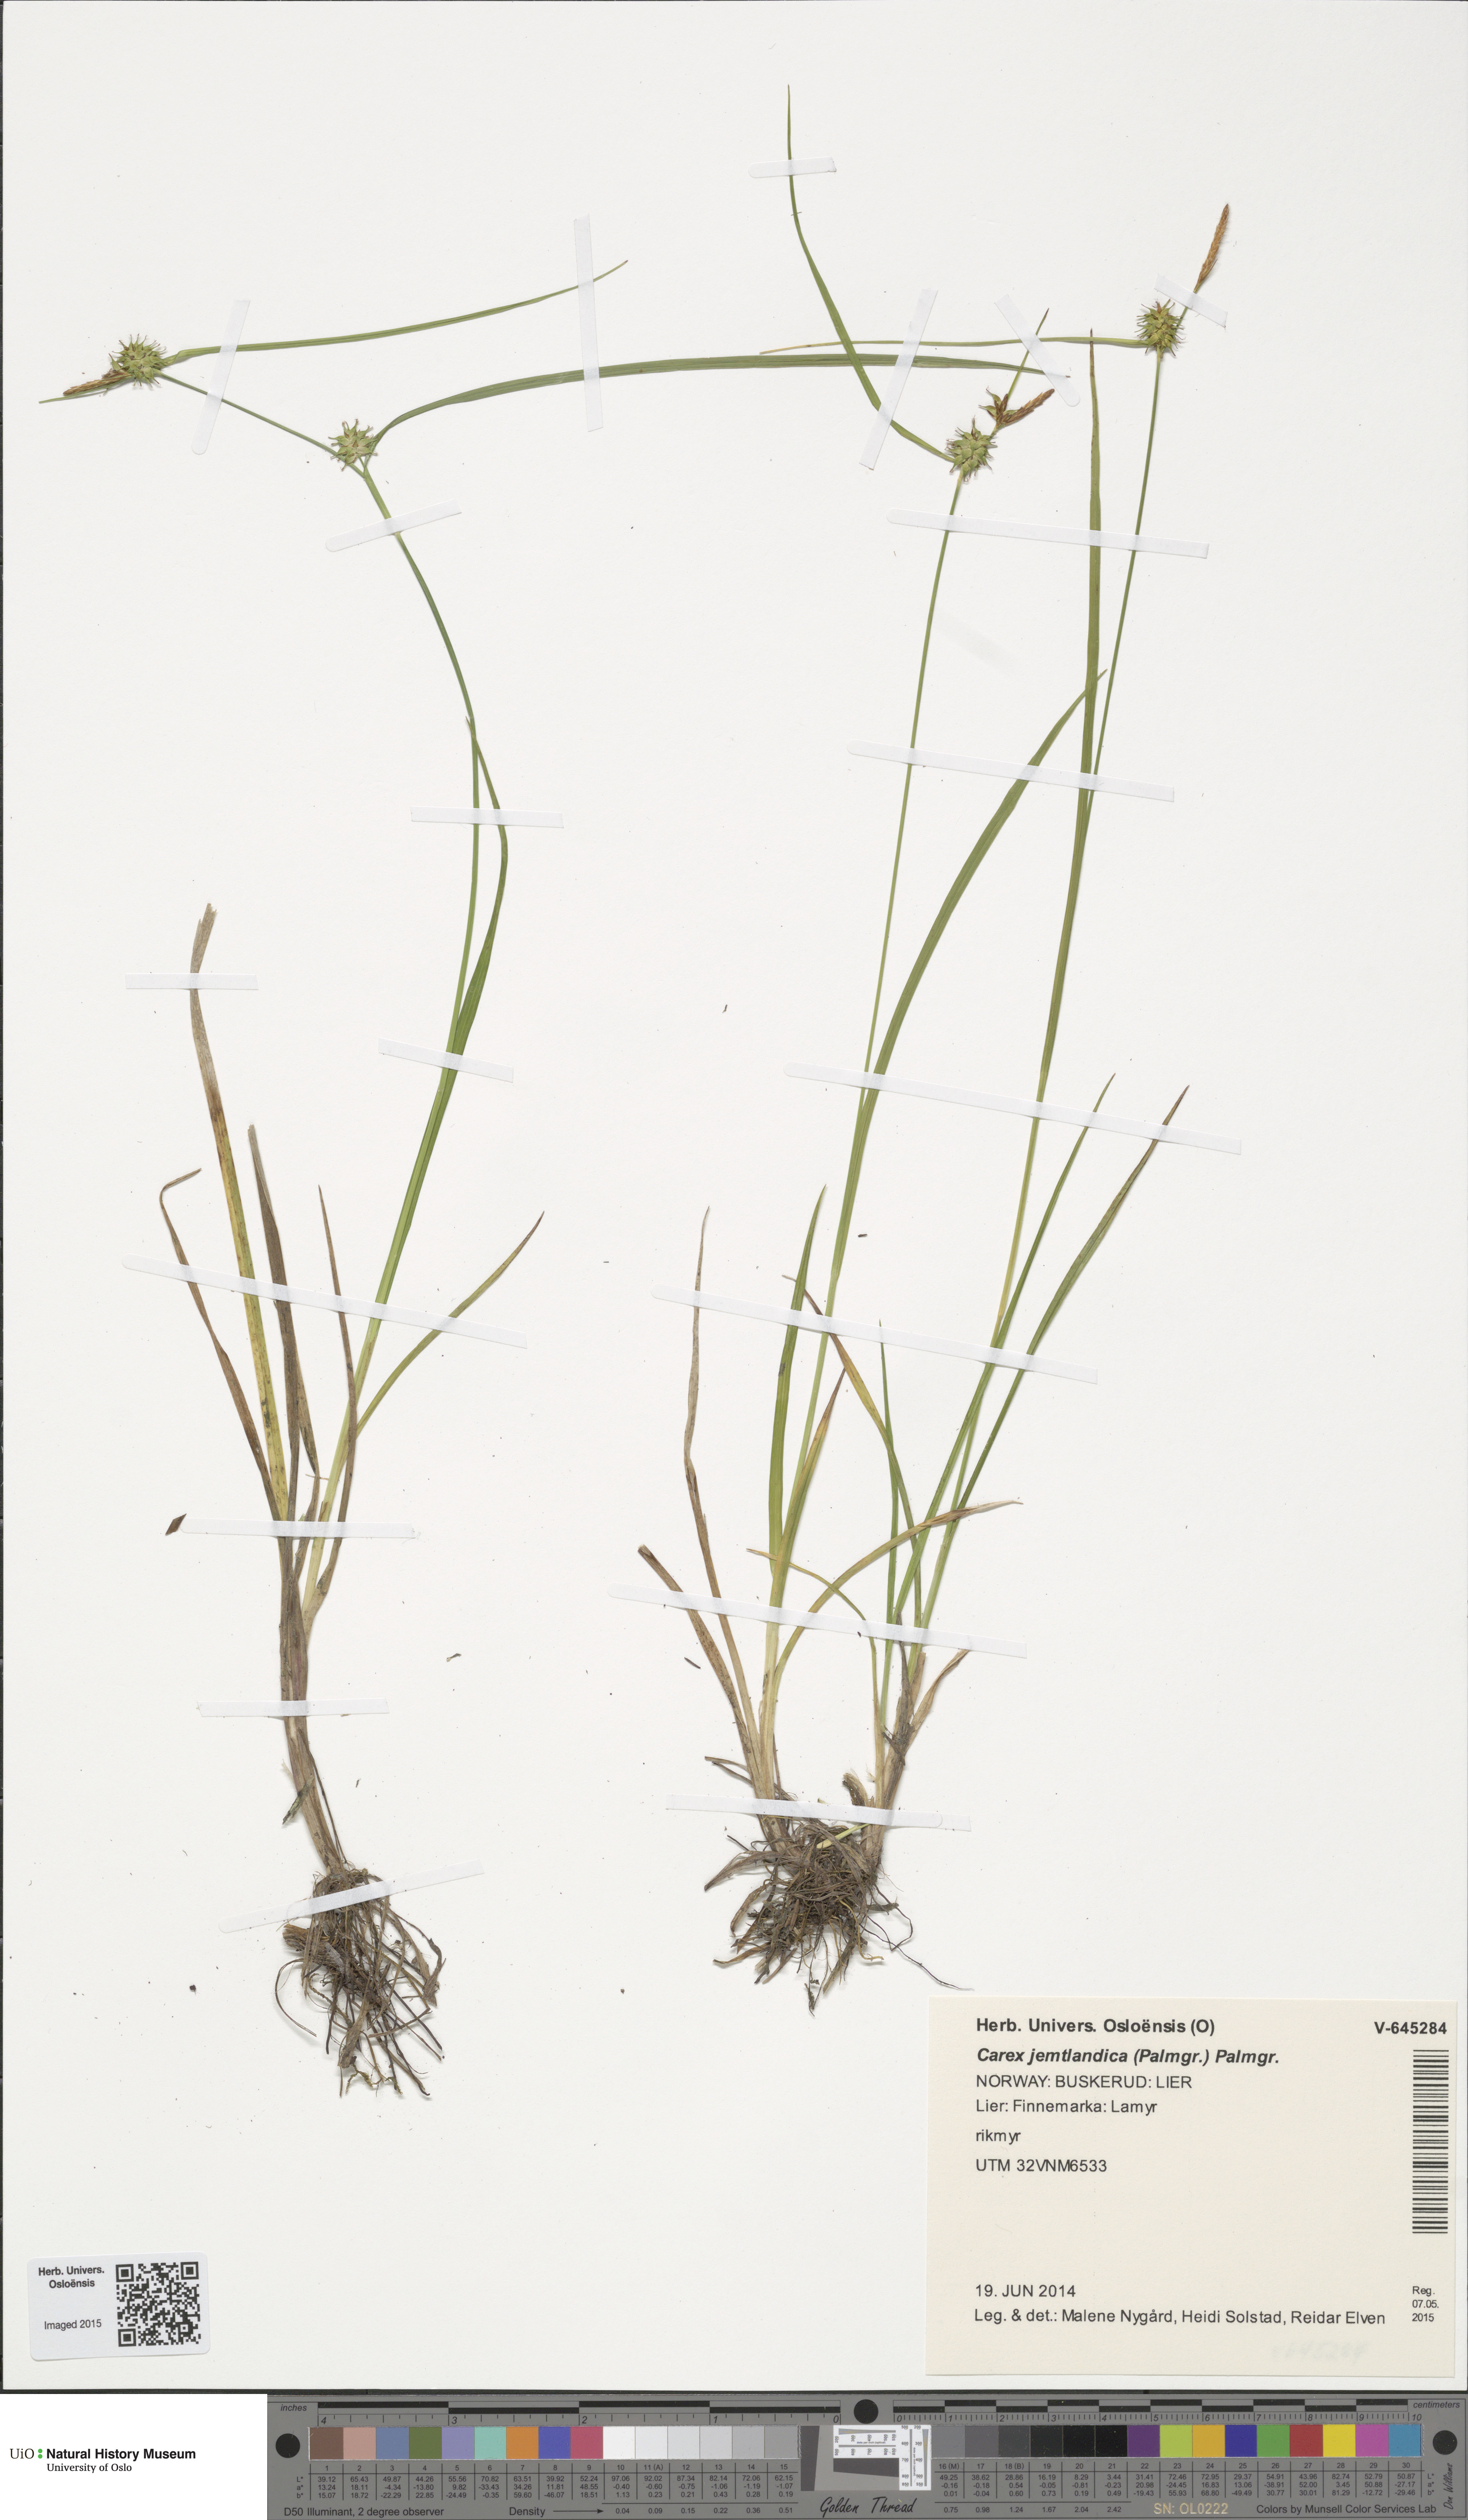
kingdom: Plantae
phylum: Tracheophyta
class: Liliopsida
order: Poales
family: Cyperaceae
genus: Carex
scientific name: Carex lepidocarpa
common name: Long-stalked yellow-sedge
